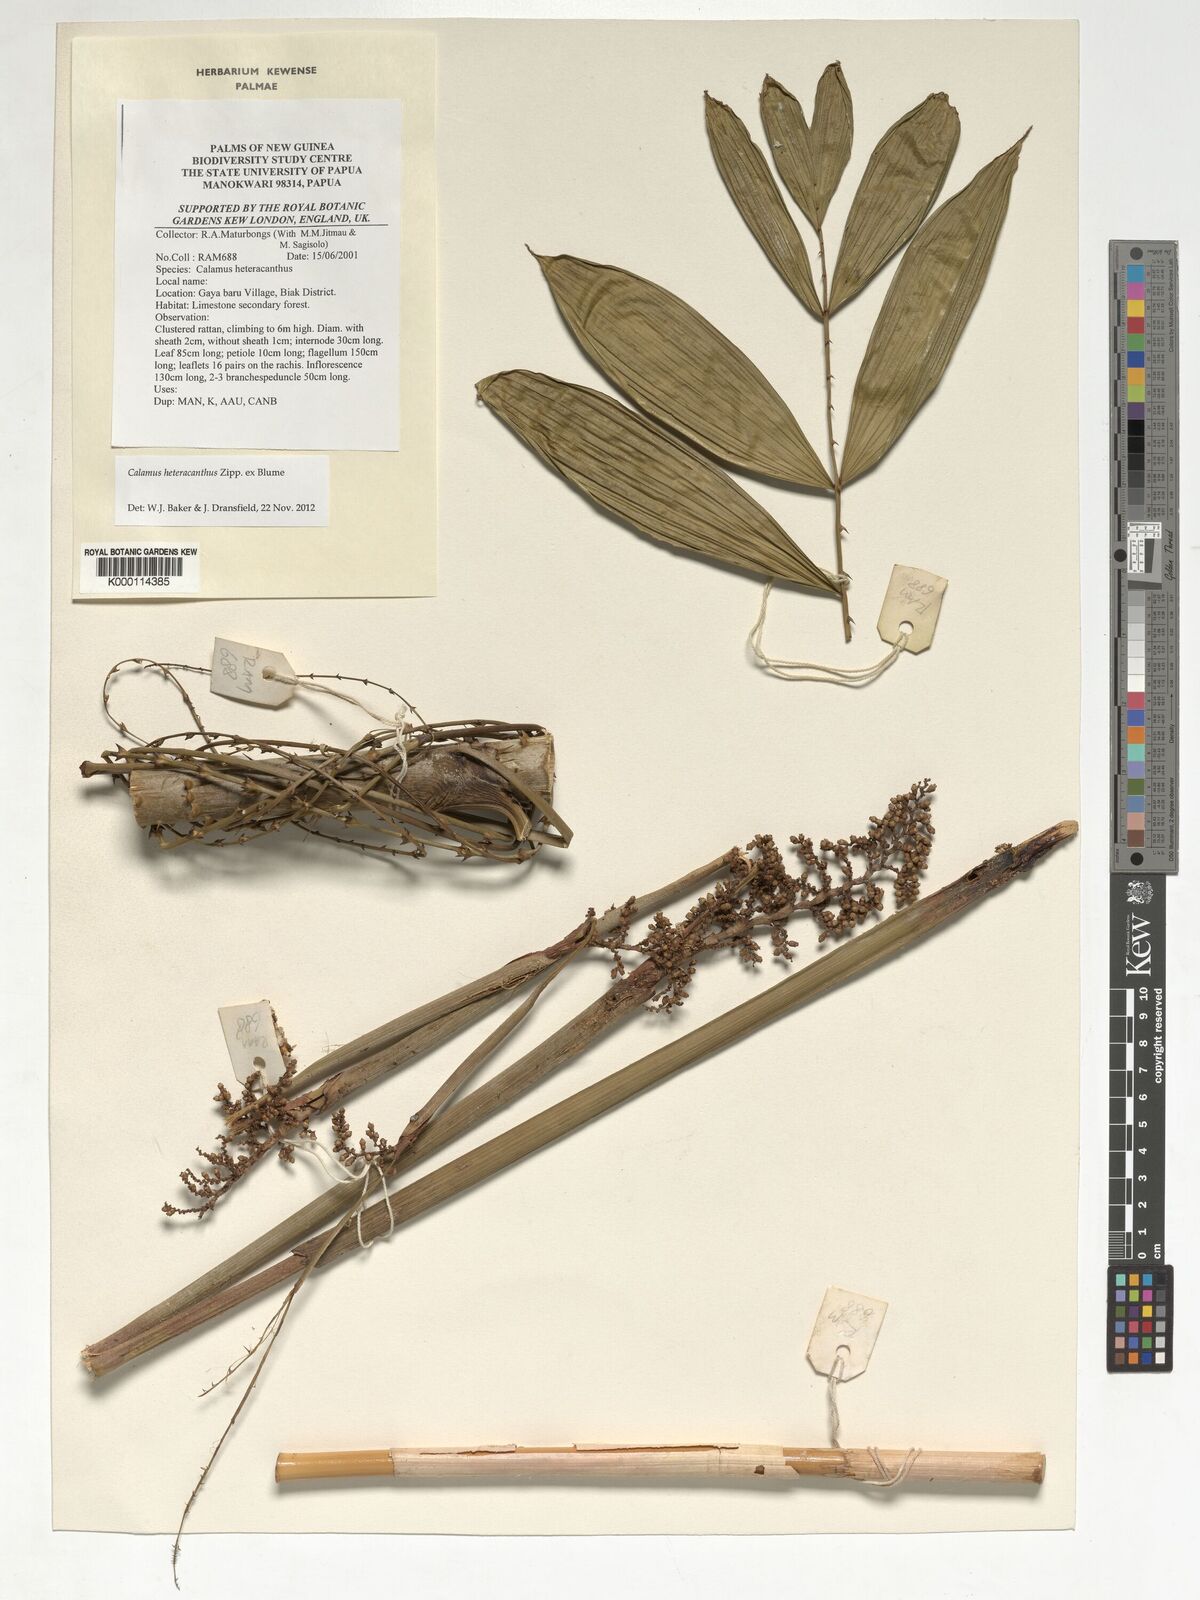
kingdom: Plantae
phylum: Tracheophyta
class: Liliopsida
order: Arecales
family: Arecaceae
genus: Calamus
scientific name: Calamus heteracanthus
